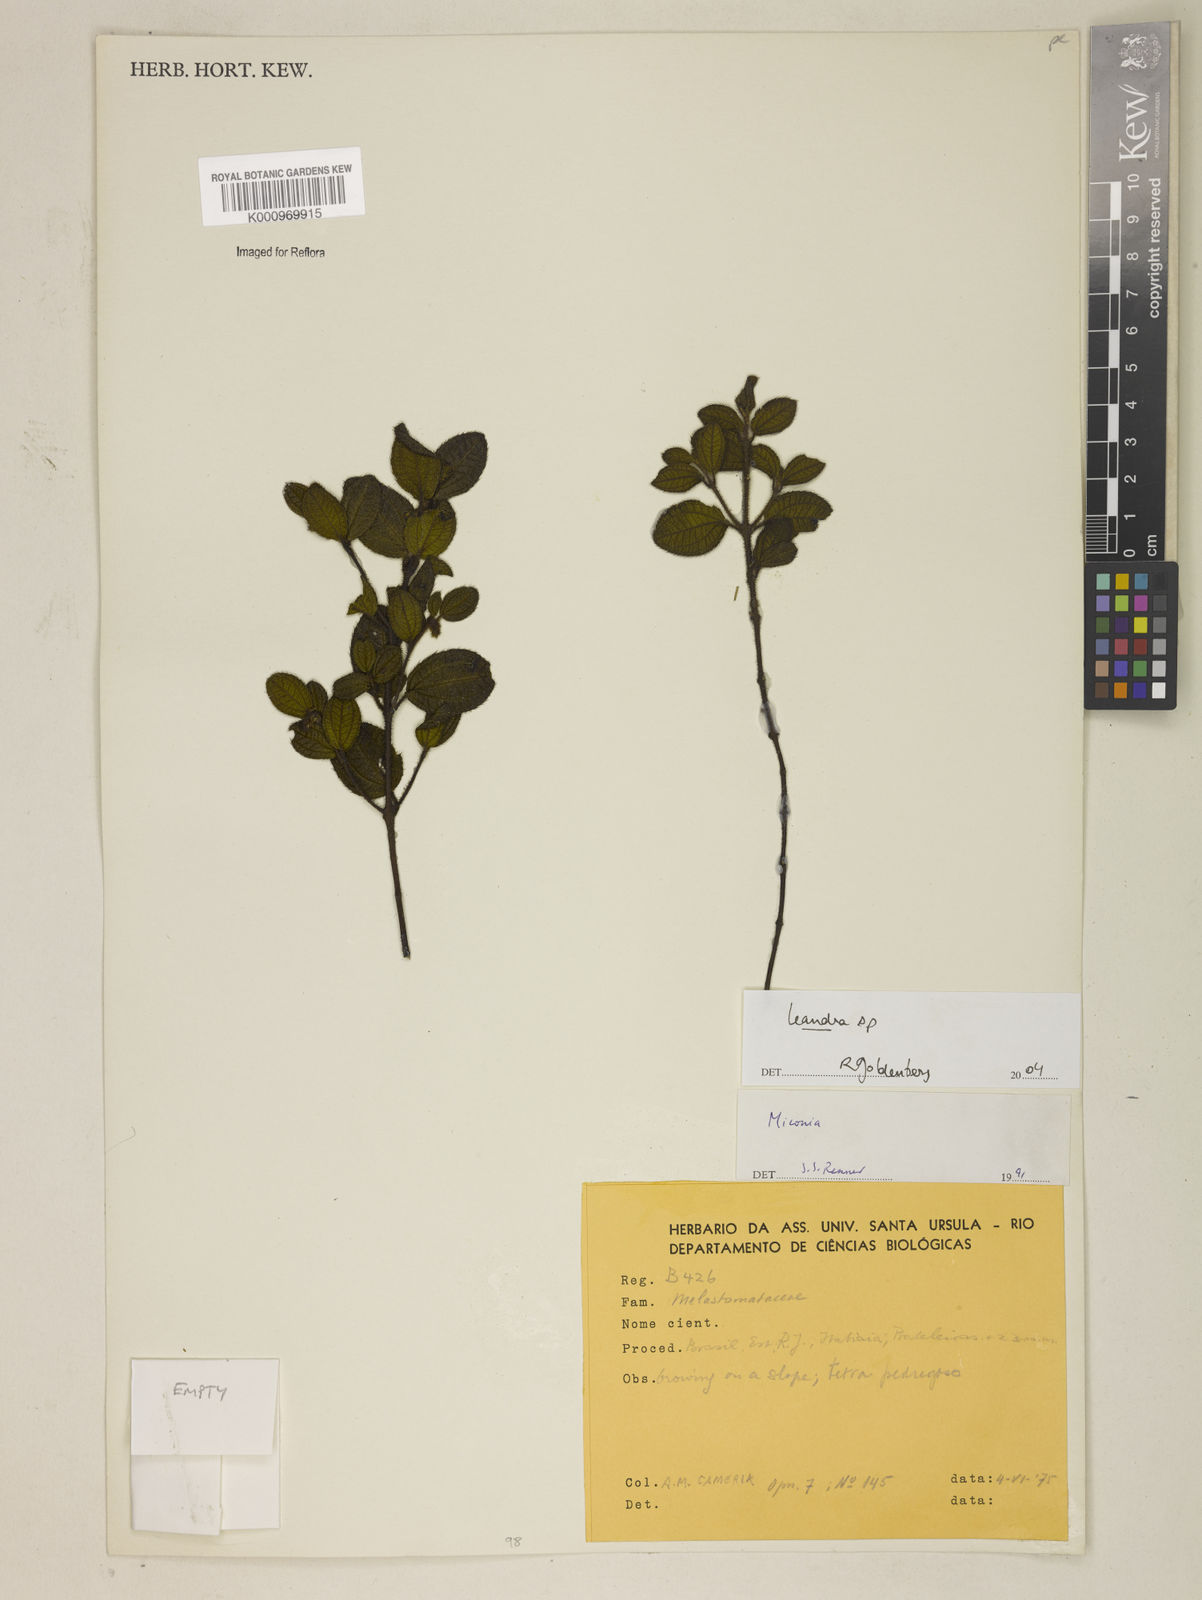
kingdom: Plantae
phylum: Tracheophyta
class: Magnoliopsida
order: Myrtales
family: Melastomataceae
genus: Miconia
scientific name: Miconia
